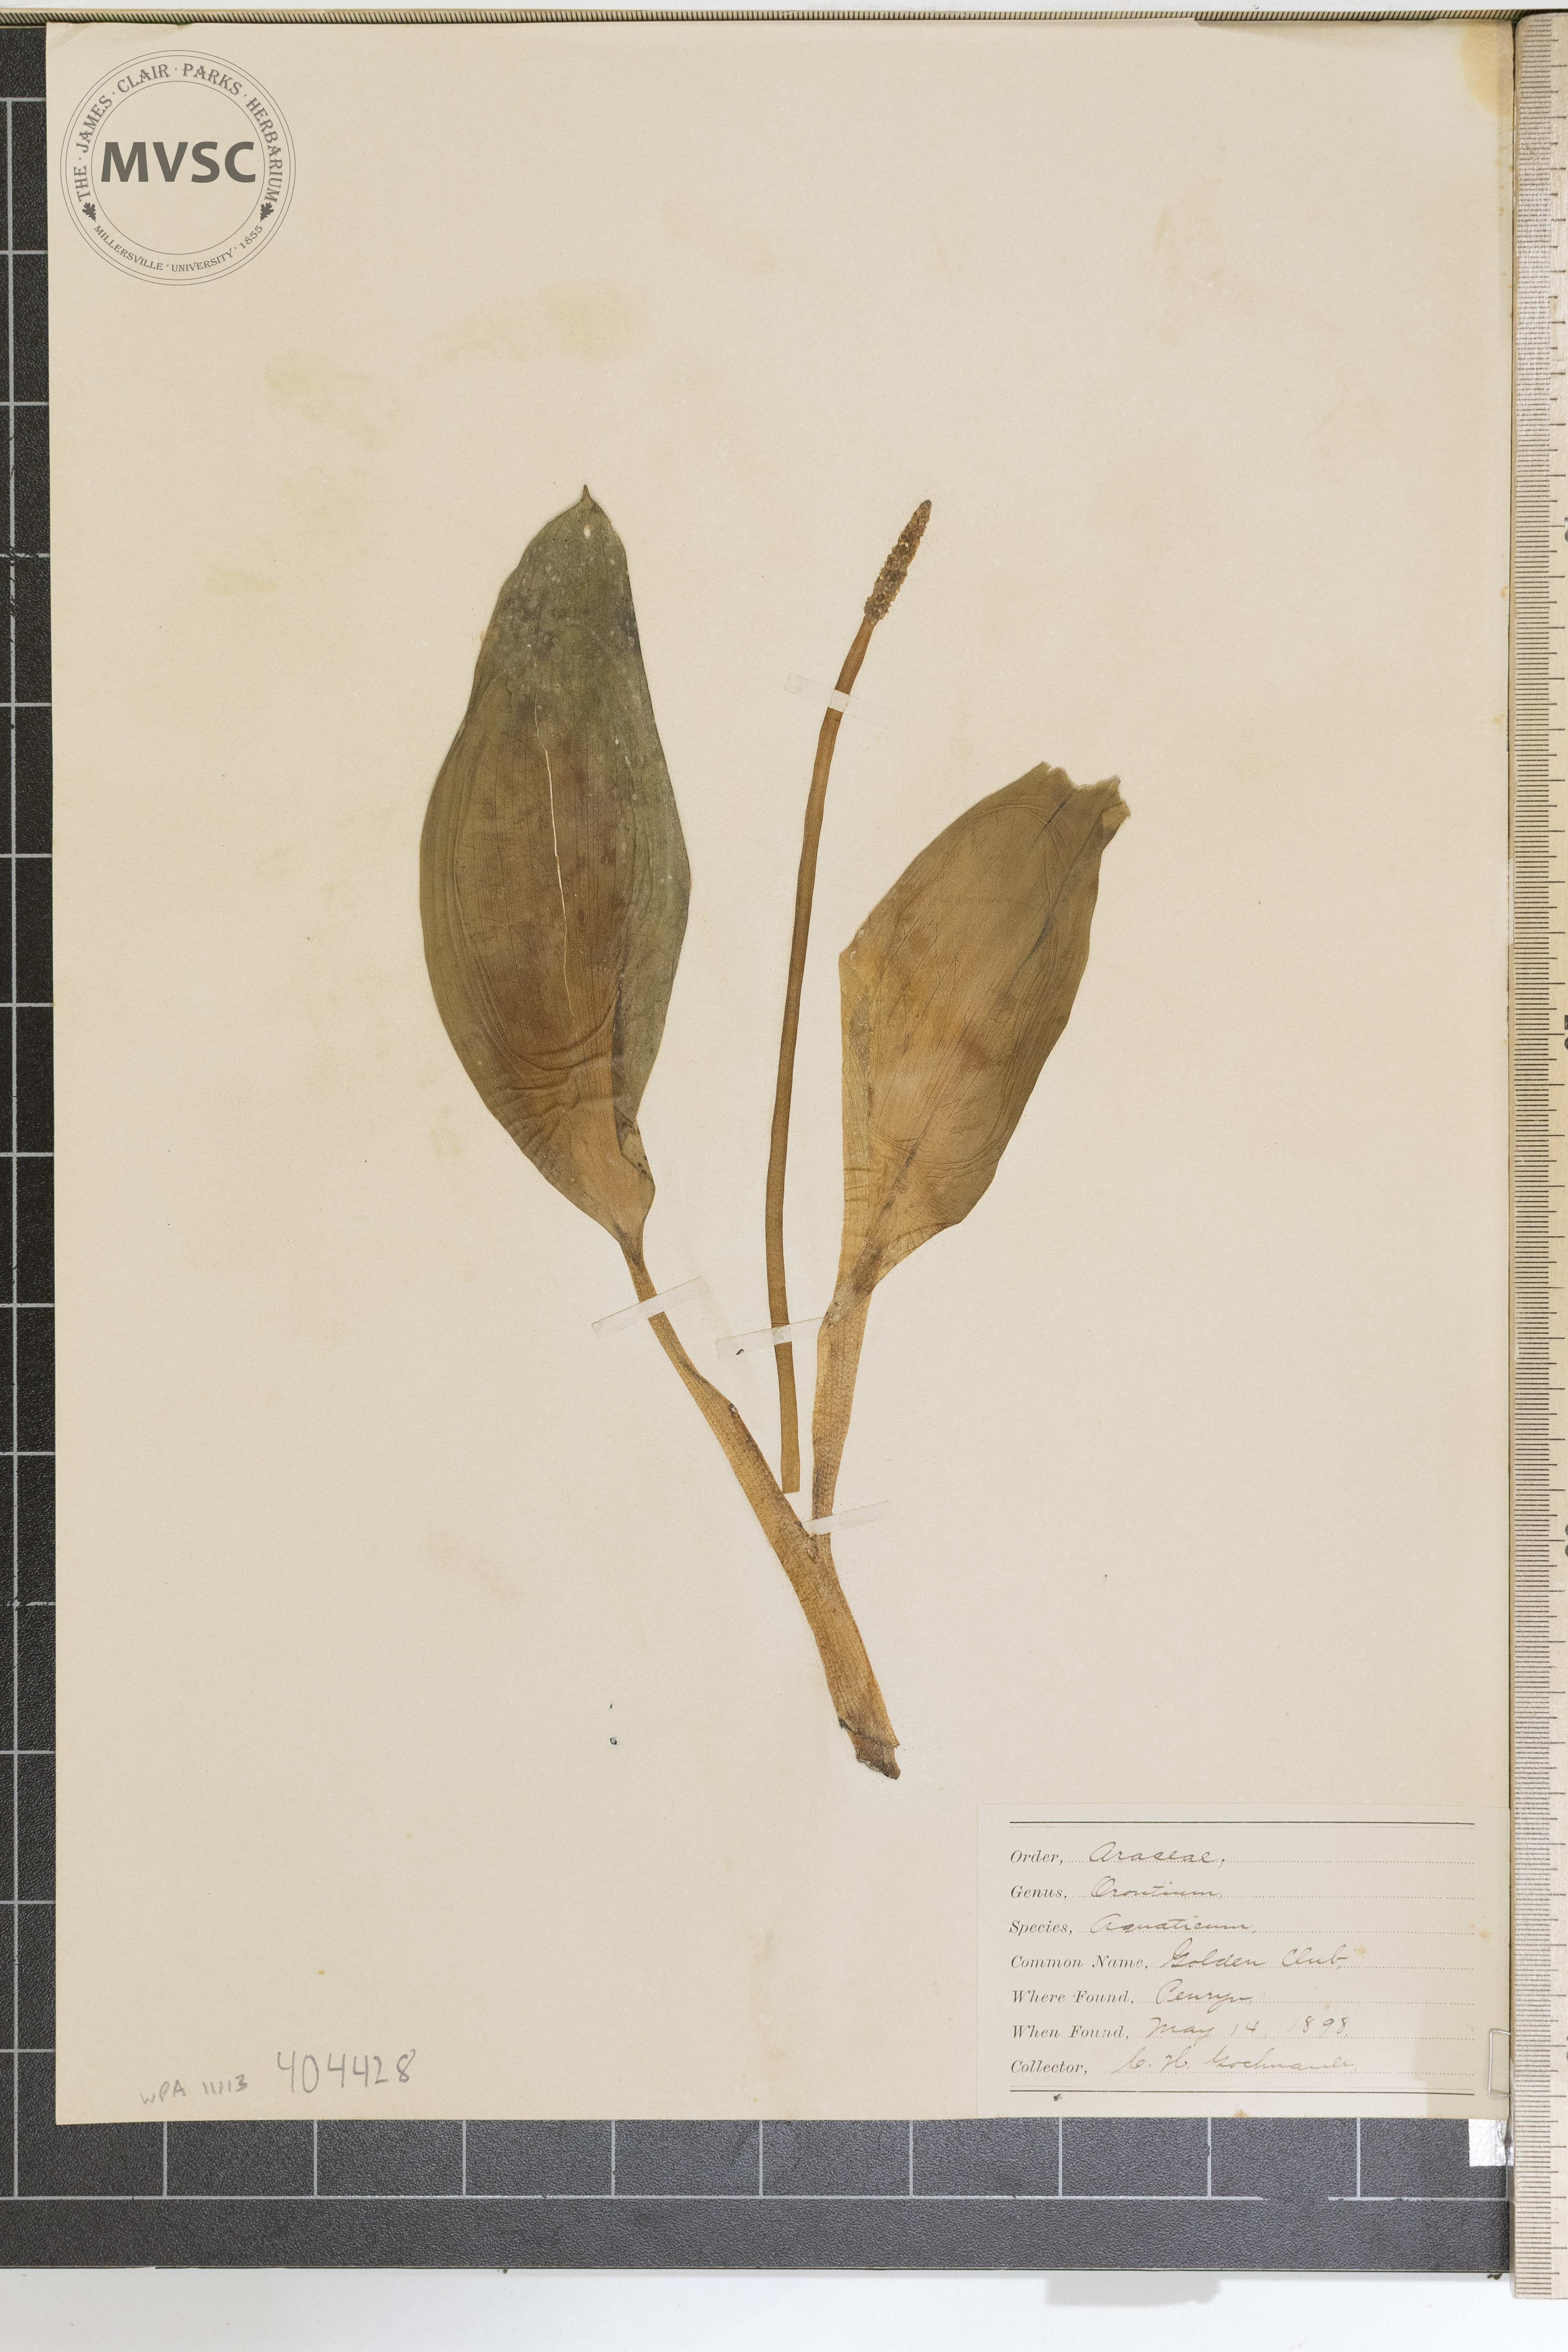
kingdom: Plantae
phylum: Tracheophyta
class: Liliopsida
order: Alismatales
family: Araceae
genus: Orontium
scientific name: Orontium aquaticum
